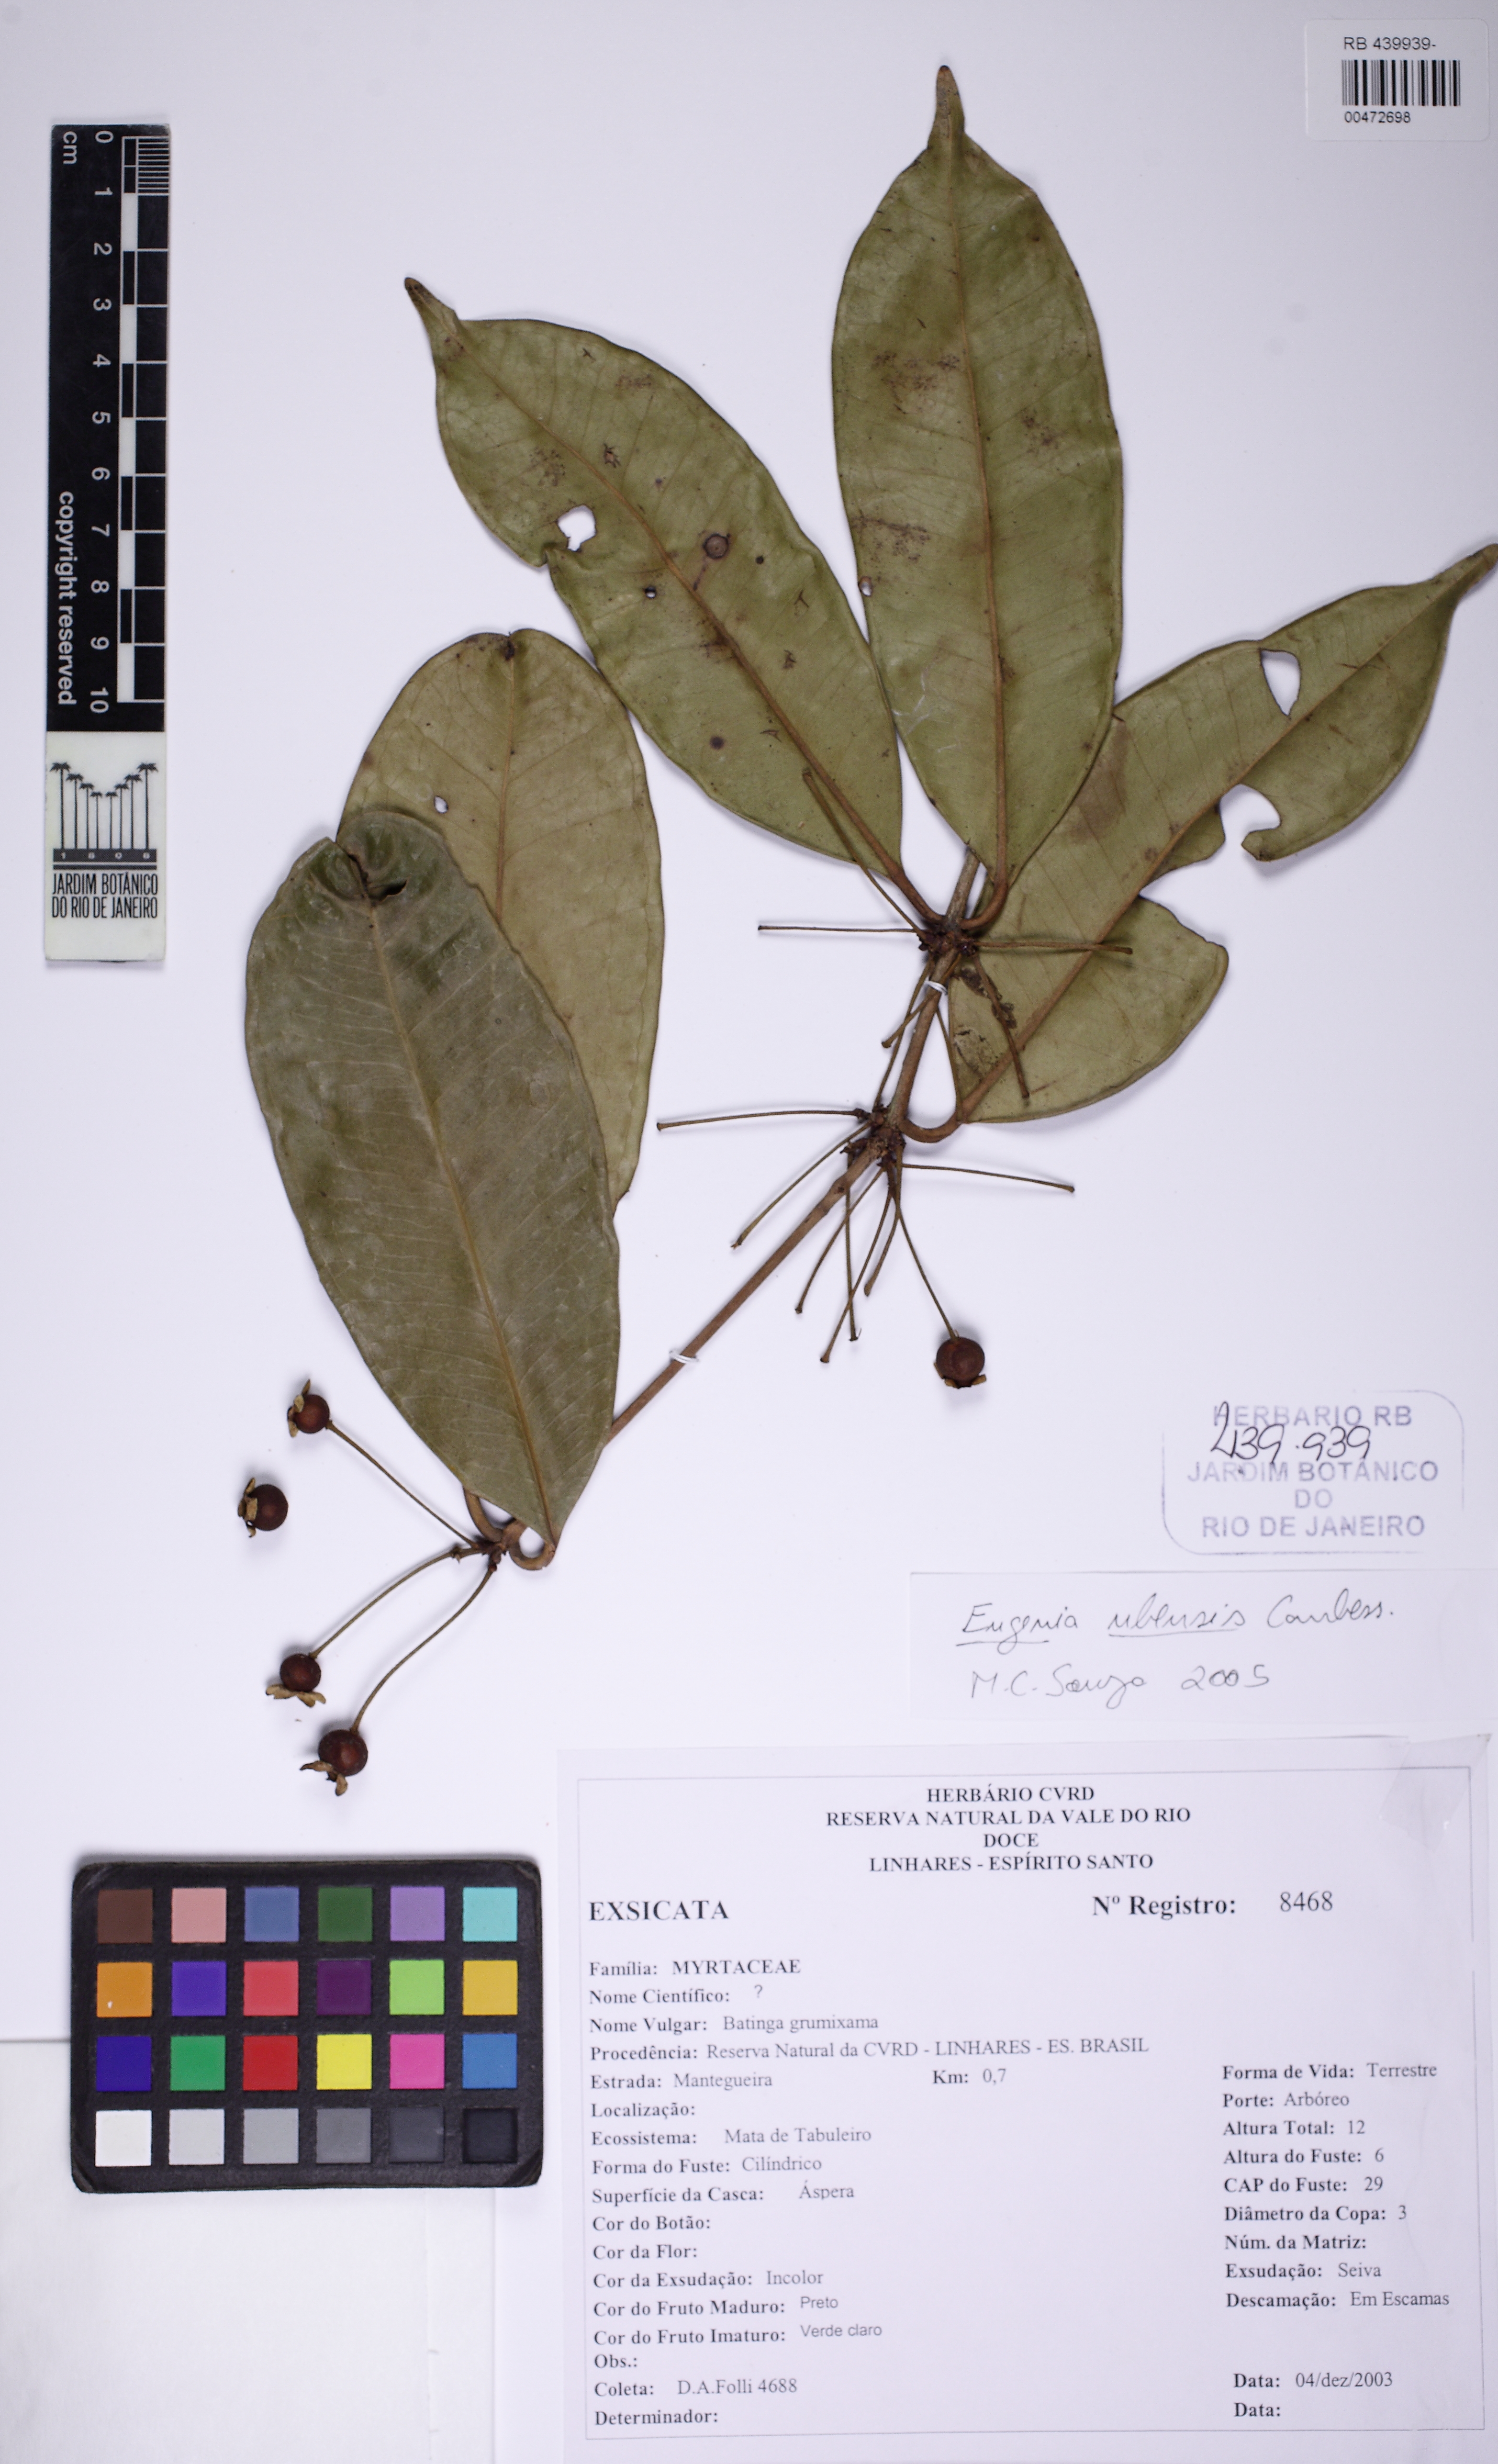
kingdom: Plantae
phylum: Tracheophyta
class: Magnoliopsida
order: Myrtales
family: Myrtaceae
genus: Eugenia
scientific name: Eugenia platyphylla
